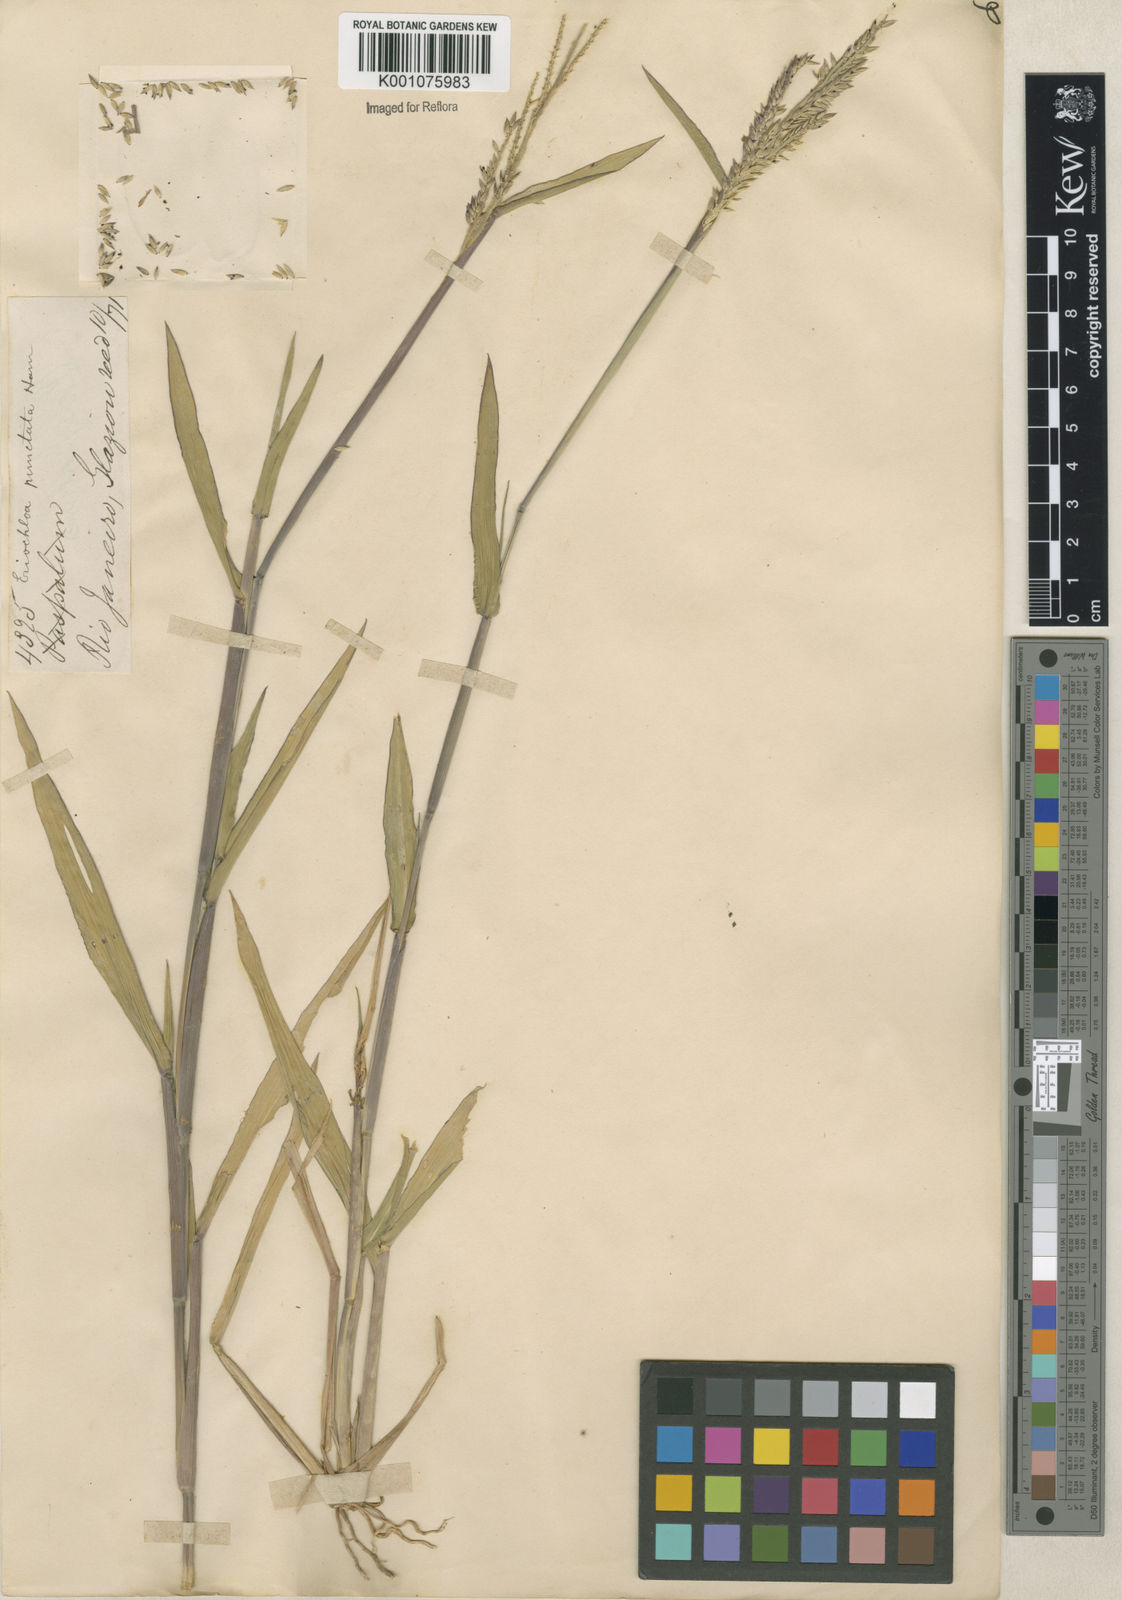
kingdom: Plantae
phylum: Tracheophyta
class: Liliopsida
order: Poales
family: Poaceae
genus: Eriochloa
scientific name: Eriochloa punctata
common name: Louisiana cupgrass
